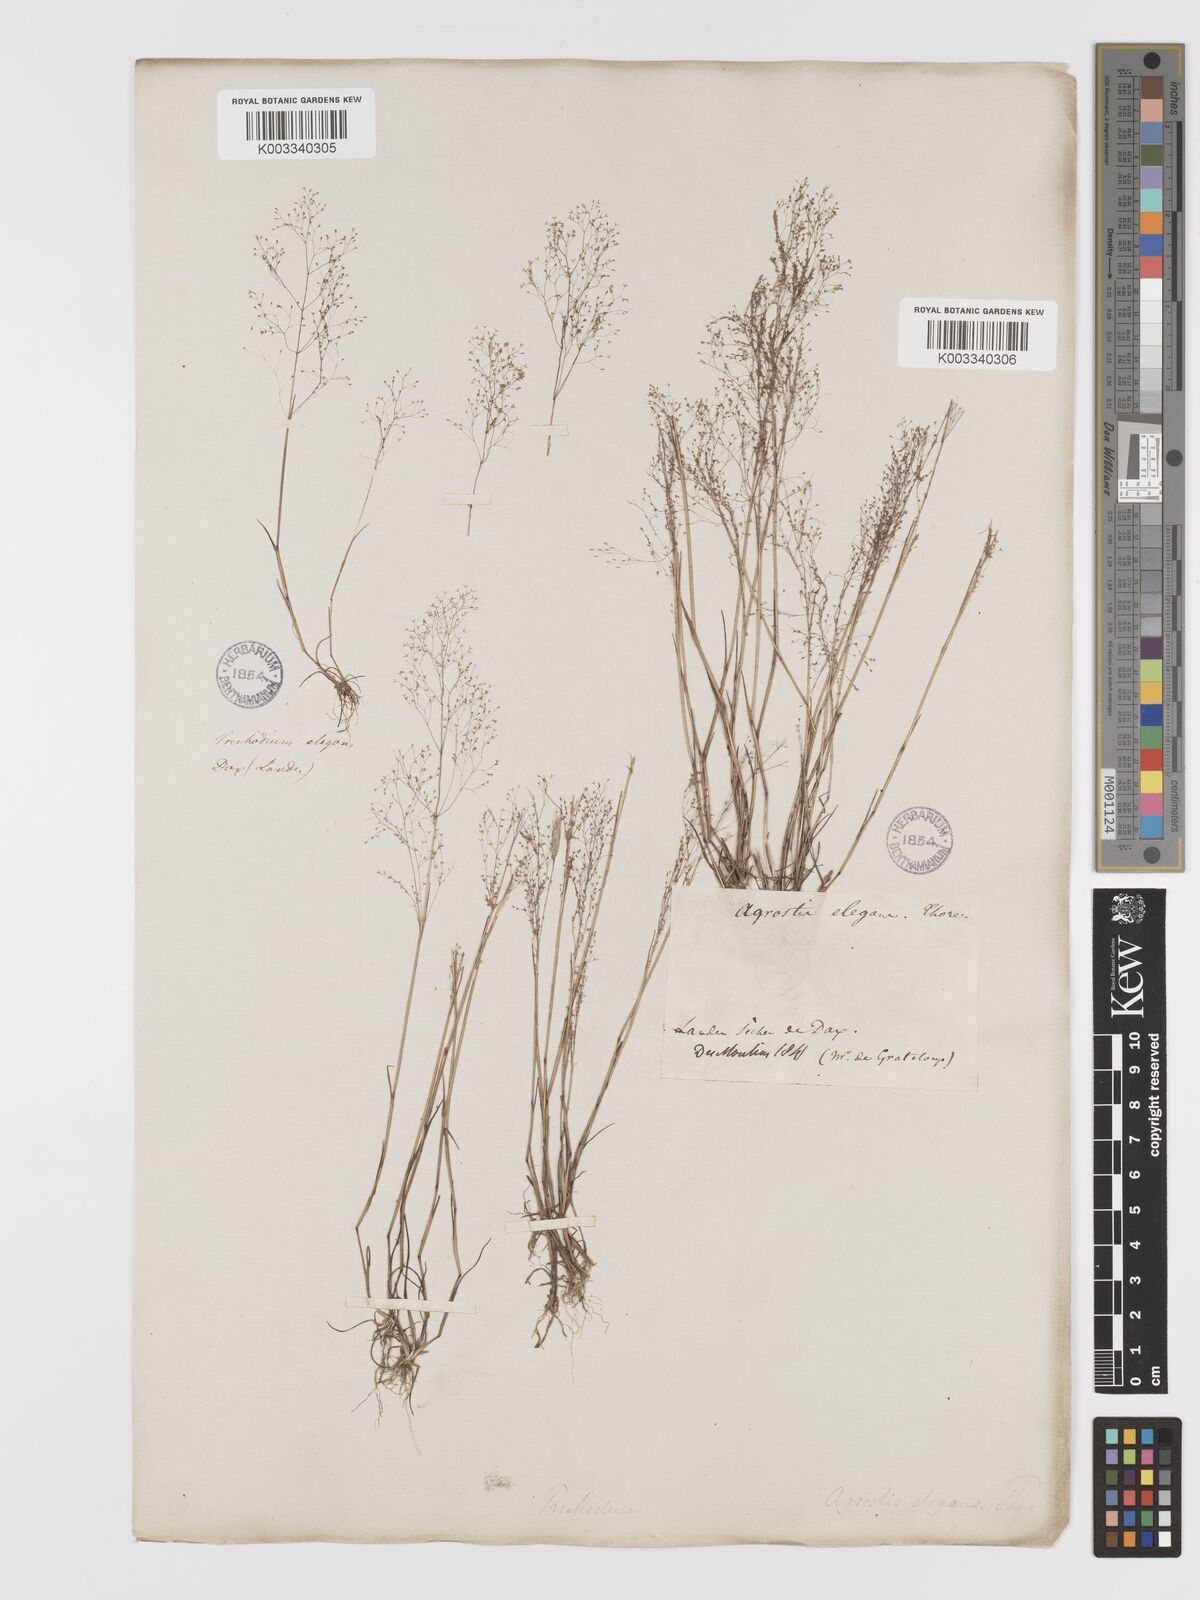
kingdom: Plantae
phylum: Tracheophyta
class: Liliopsida
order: Poales
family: Poaceae
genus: Agrostis
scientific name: Agrostis tenerrima
